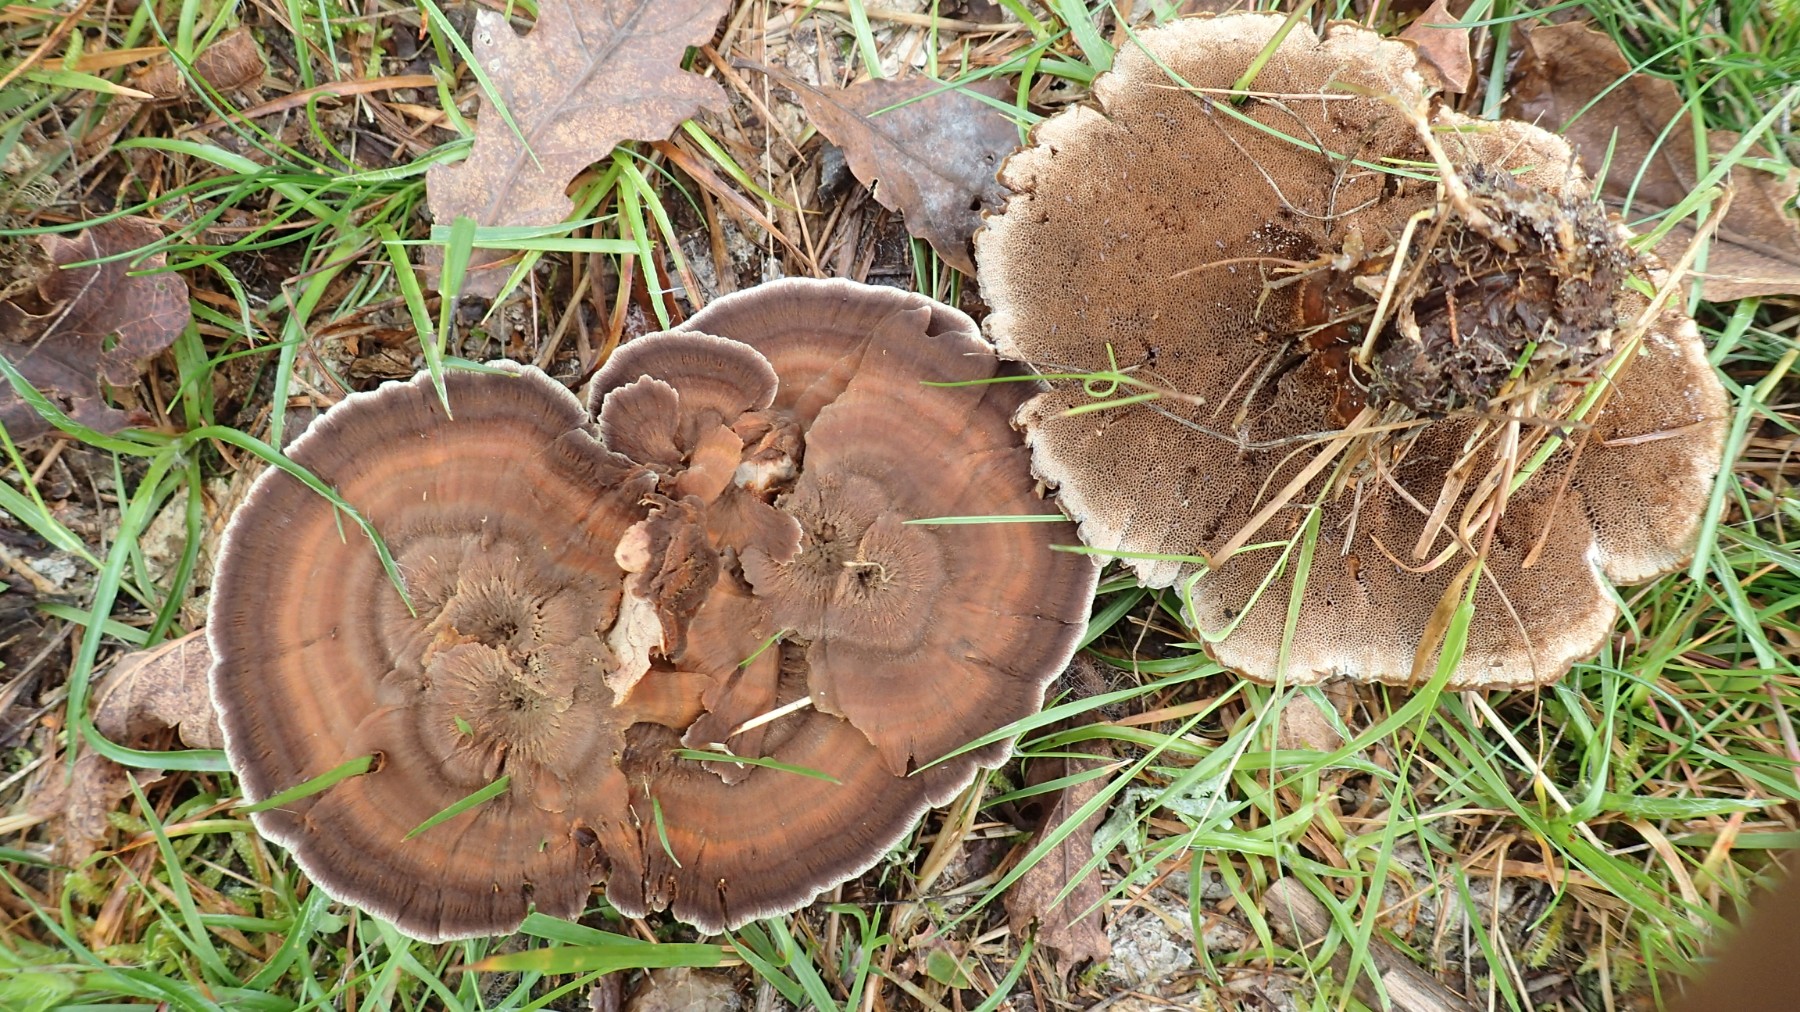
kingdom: Fungi
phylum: Basidiomycota
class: Agaricomycetes
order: Hymenochaetales
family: Hymenochaetaceae
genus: Coltricia
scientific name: Coltricia perennis
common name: almindelig sandporesvamp
